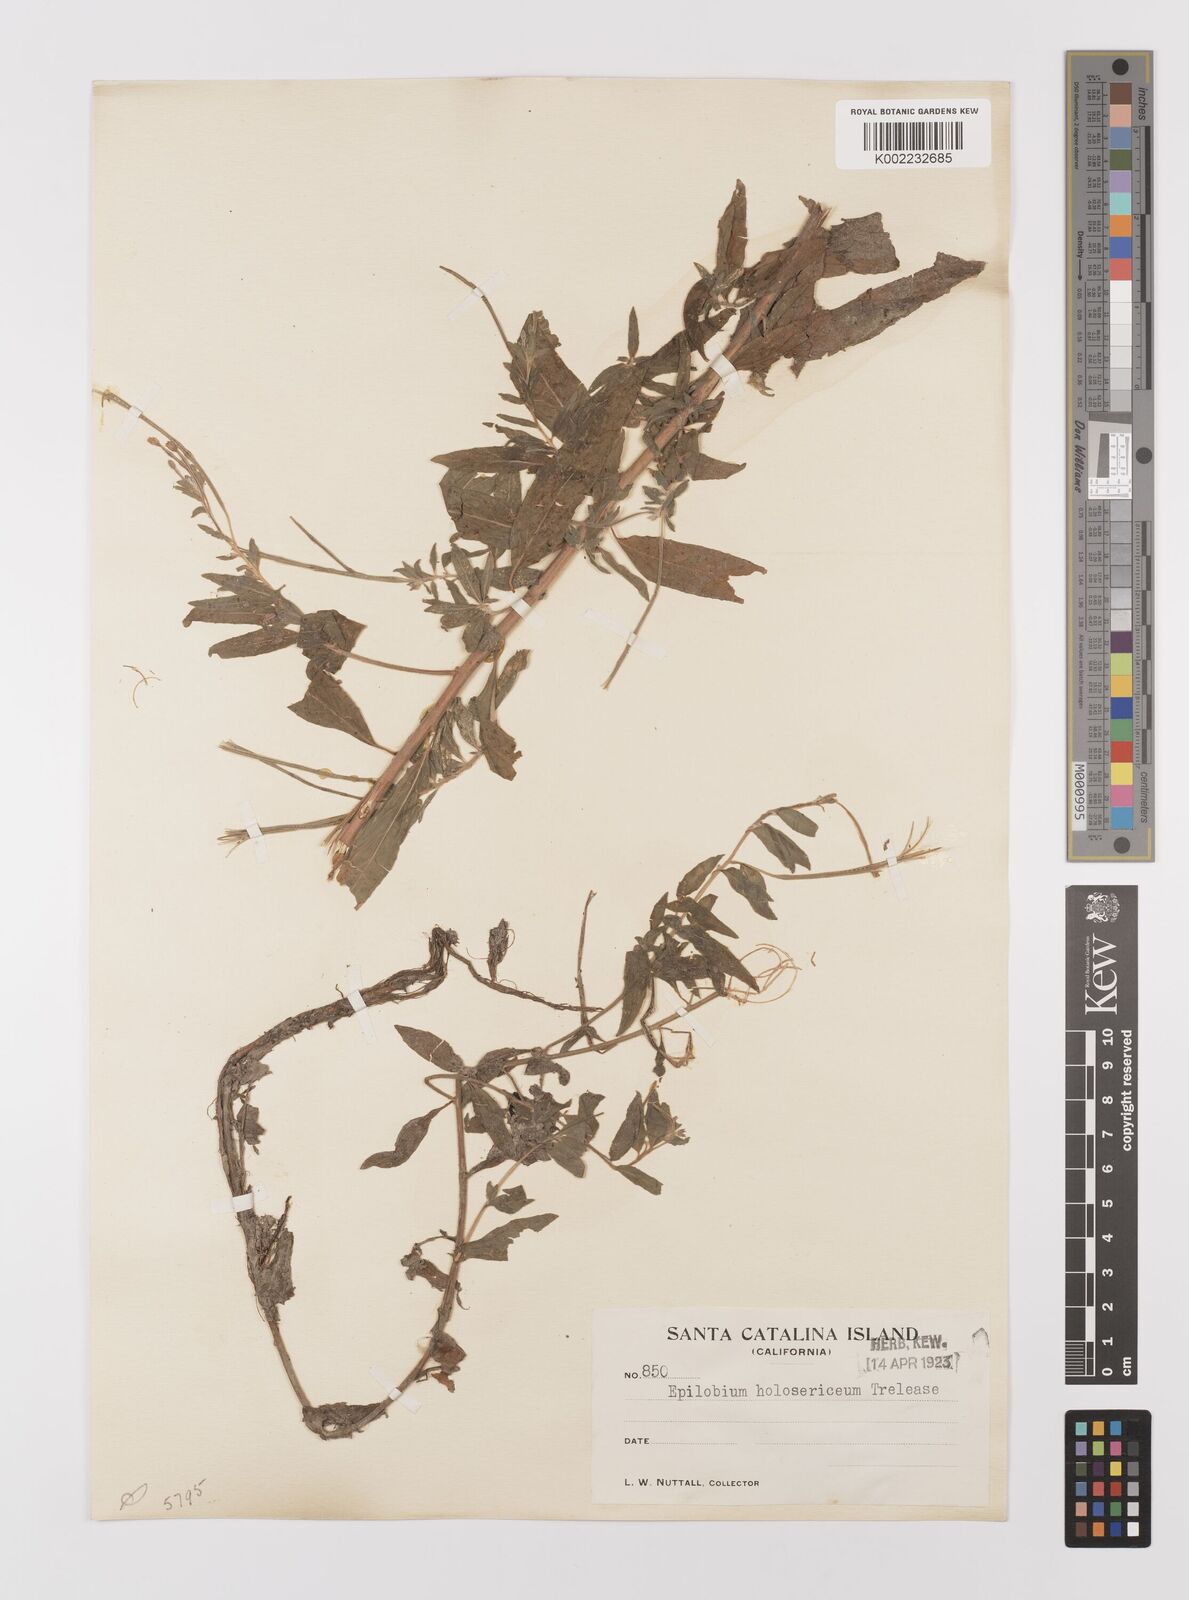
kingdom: Plantae
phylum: Tracheophyta
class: Magnoliopsida
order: Myrtales
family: Onagraceae
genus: Epilobium
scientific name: Epilobium ciliatum
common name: American willowherb
